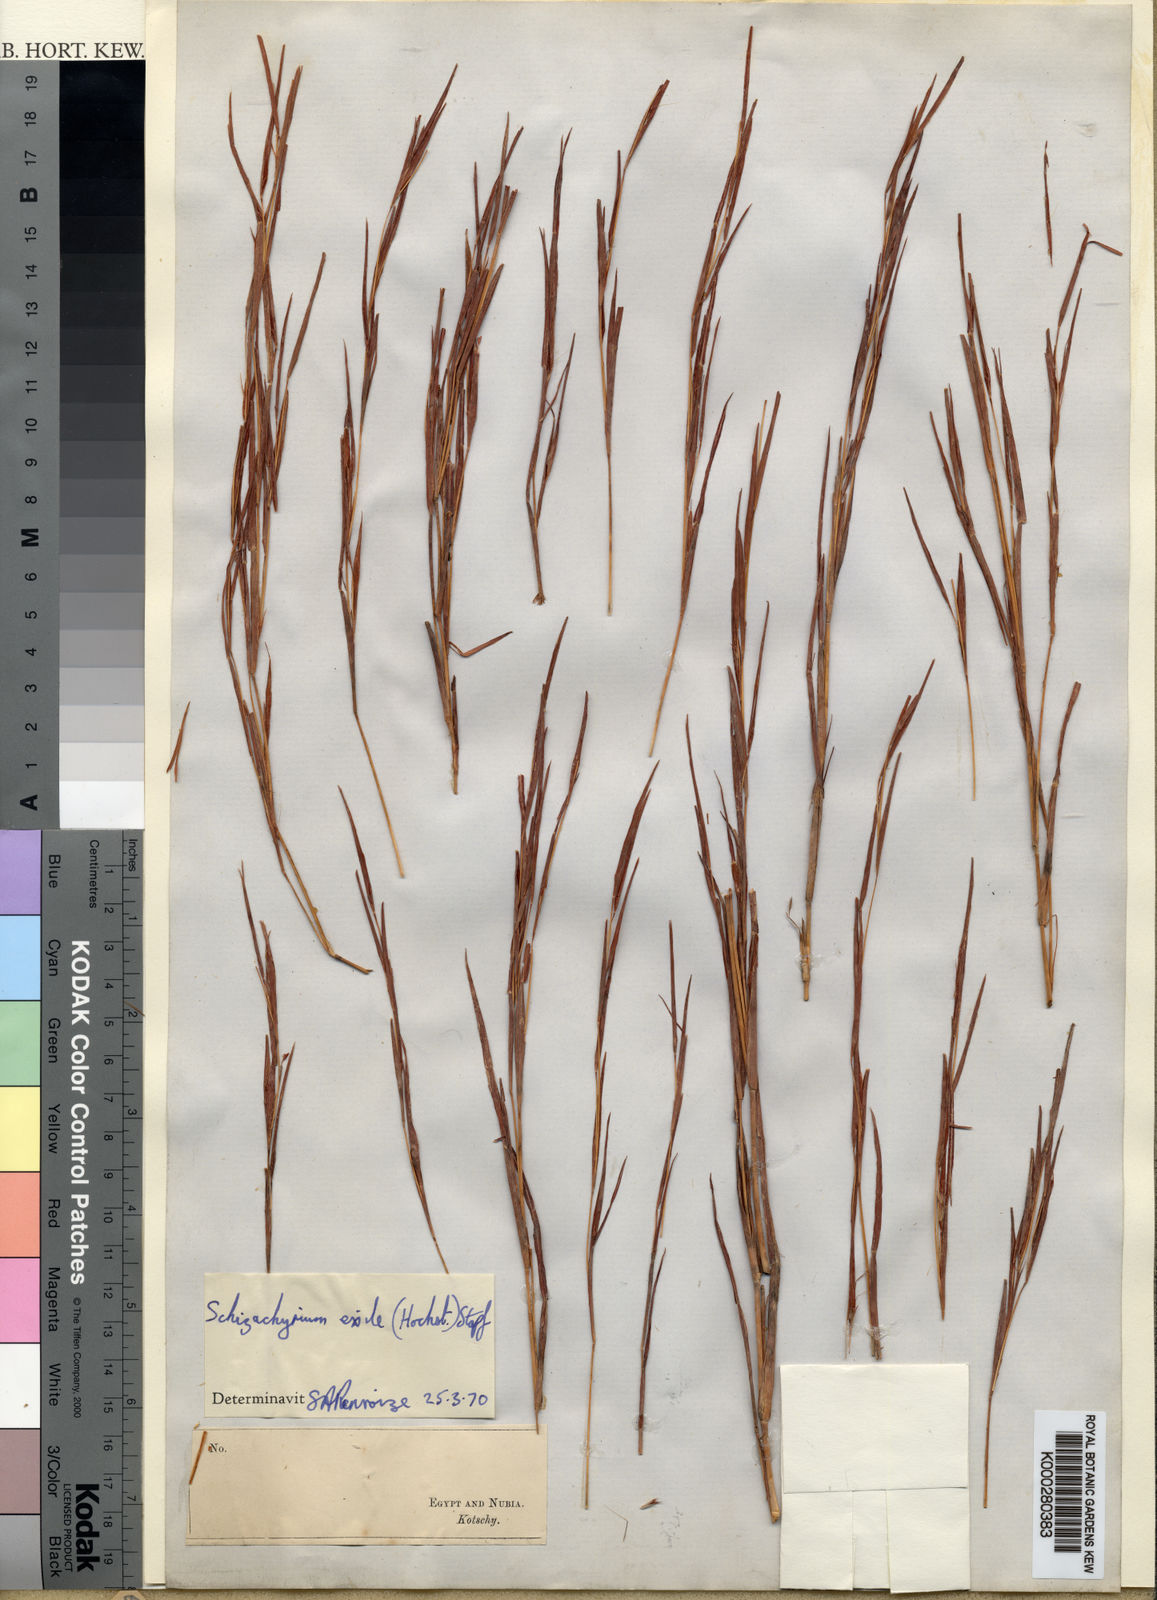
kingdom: Plantae
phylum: Tracheophyta
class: Liliopsida
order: Poales
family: Poaceae
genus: Schizachyrium
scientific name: Schizachyrium exile
